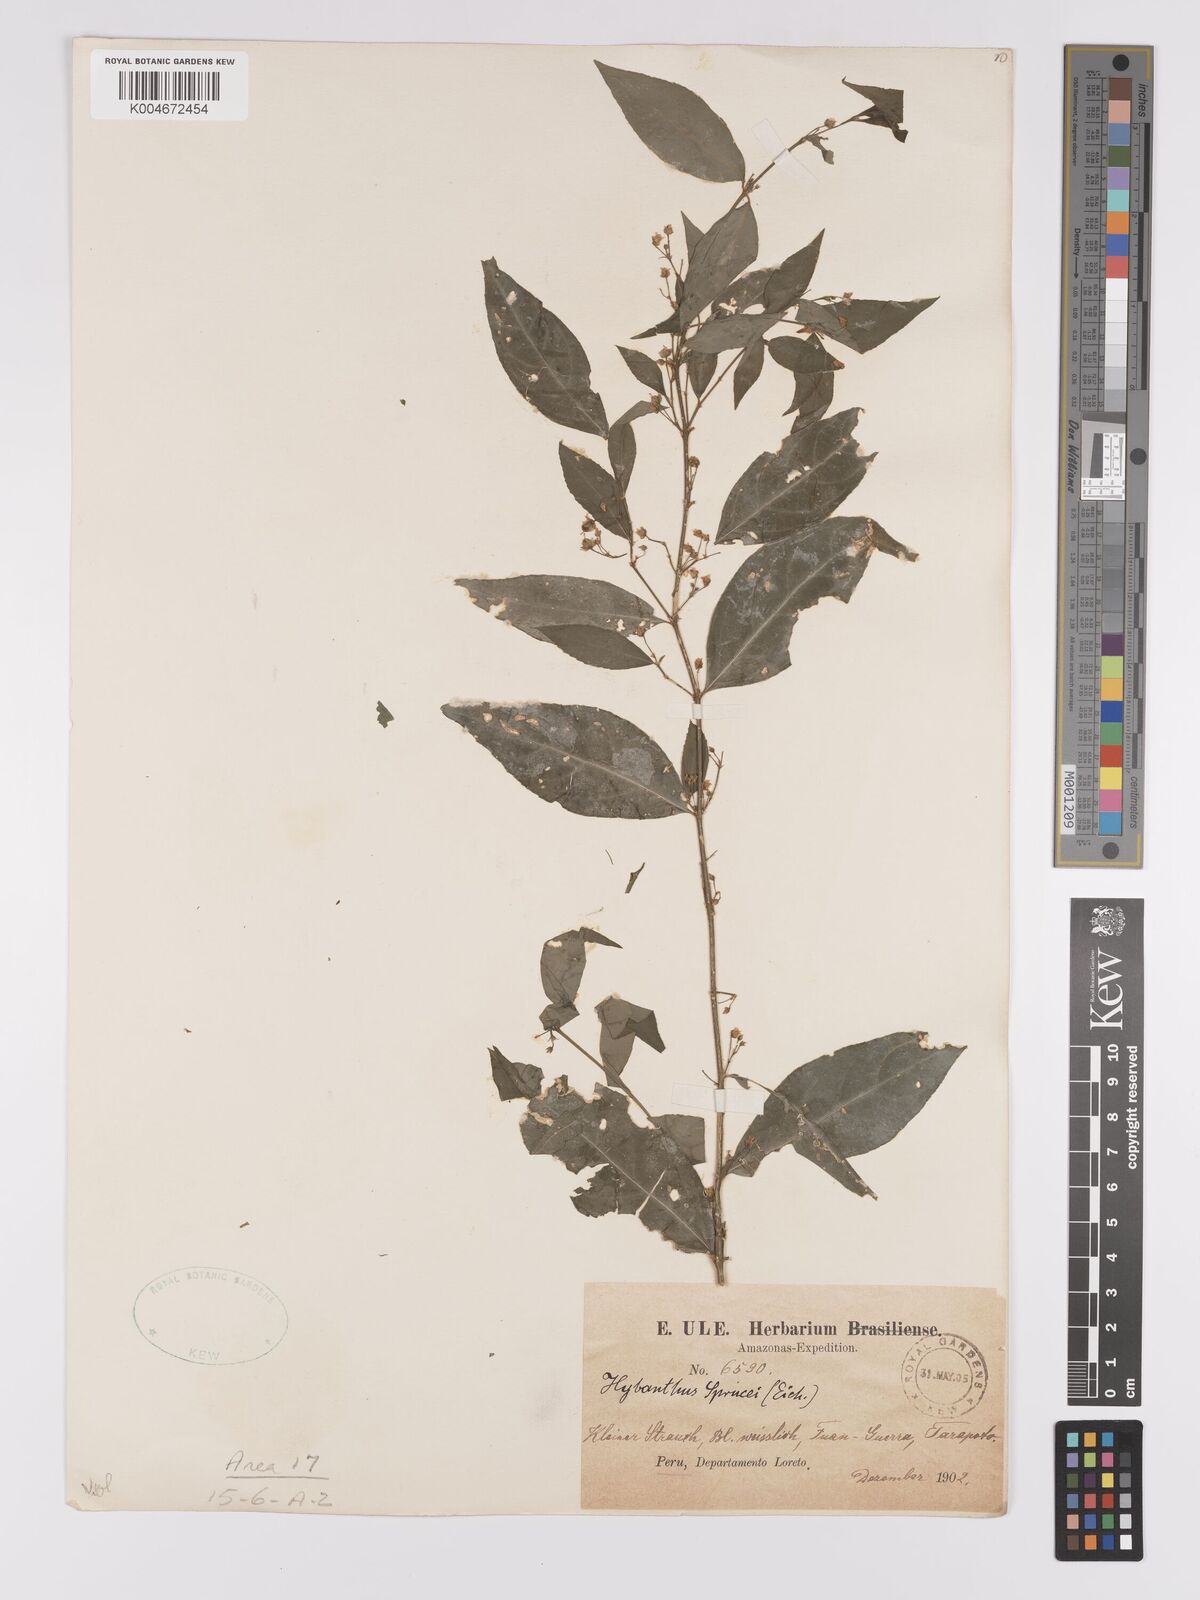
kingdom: Plantae
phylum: Tracheophyta
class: Magnoliopsida
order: Malpighiales
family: Violaceae
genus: Pombalia
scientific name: Pombalia sprucei
